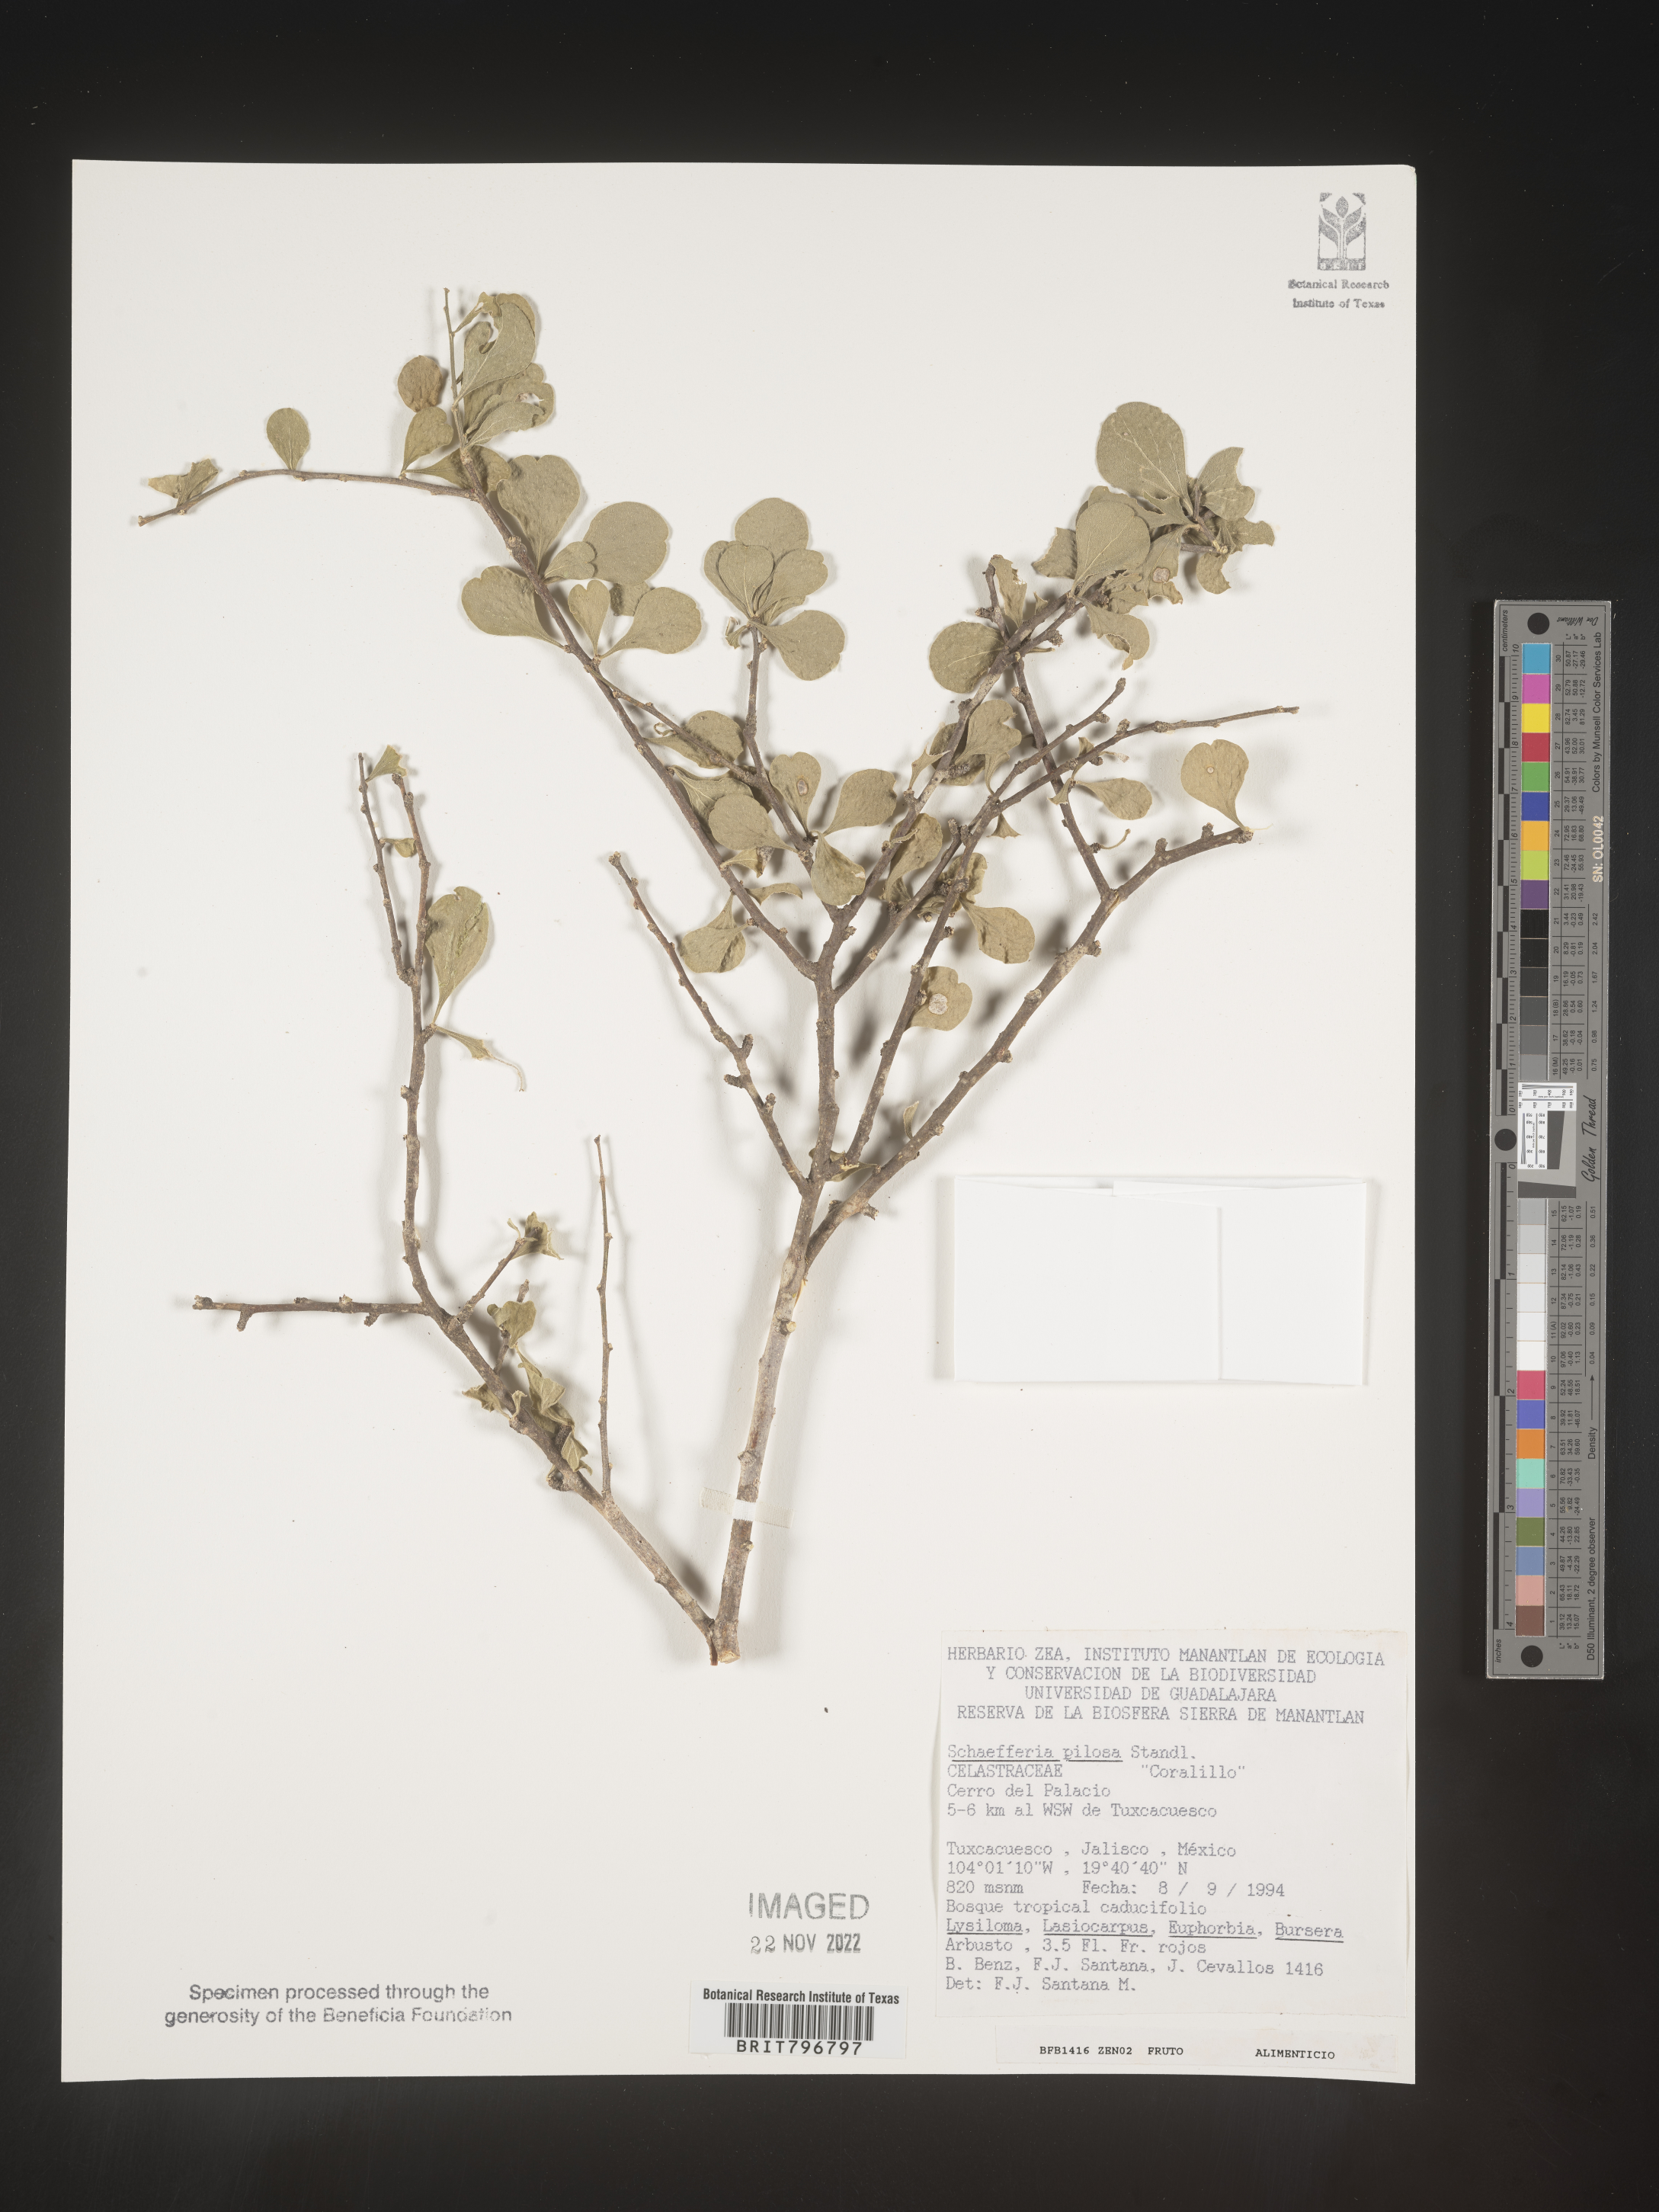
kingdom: Plantae
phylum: Tracheophyta
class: Magnoliopsida
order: Celastrales
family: Celastraceae
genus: Schaefferia
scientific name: Schaefferia
